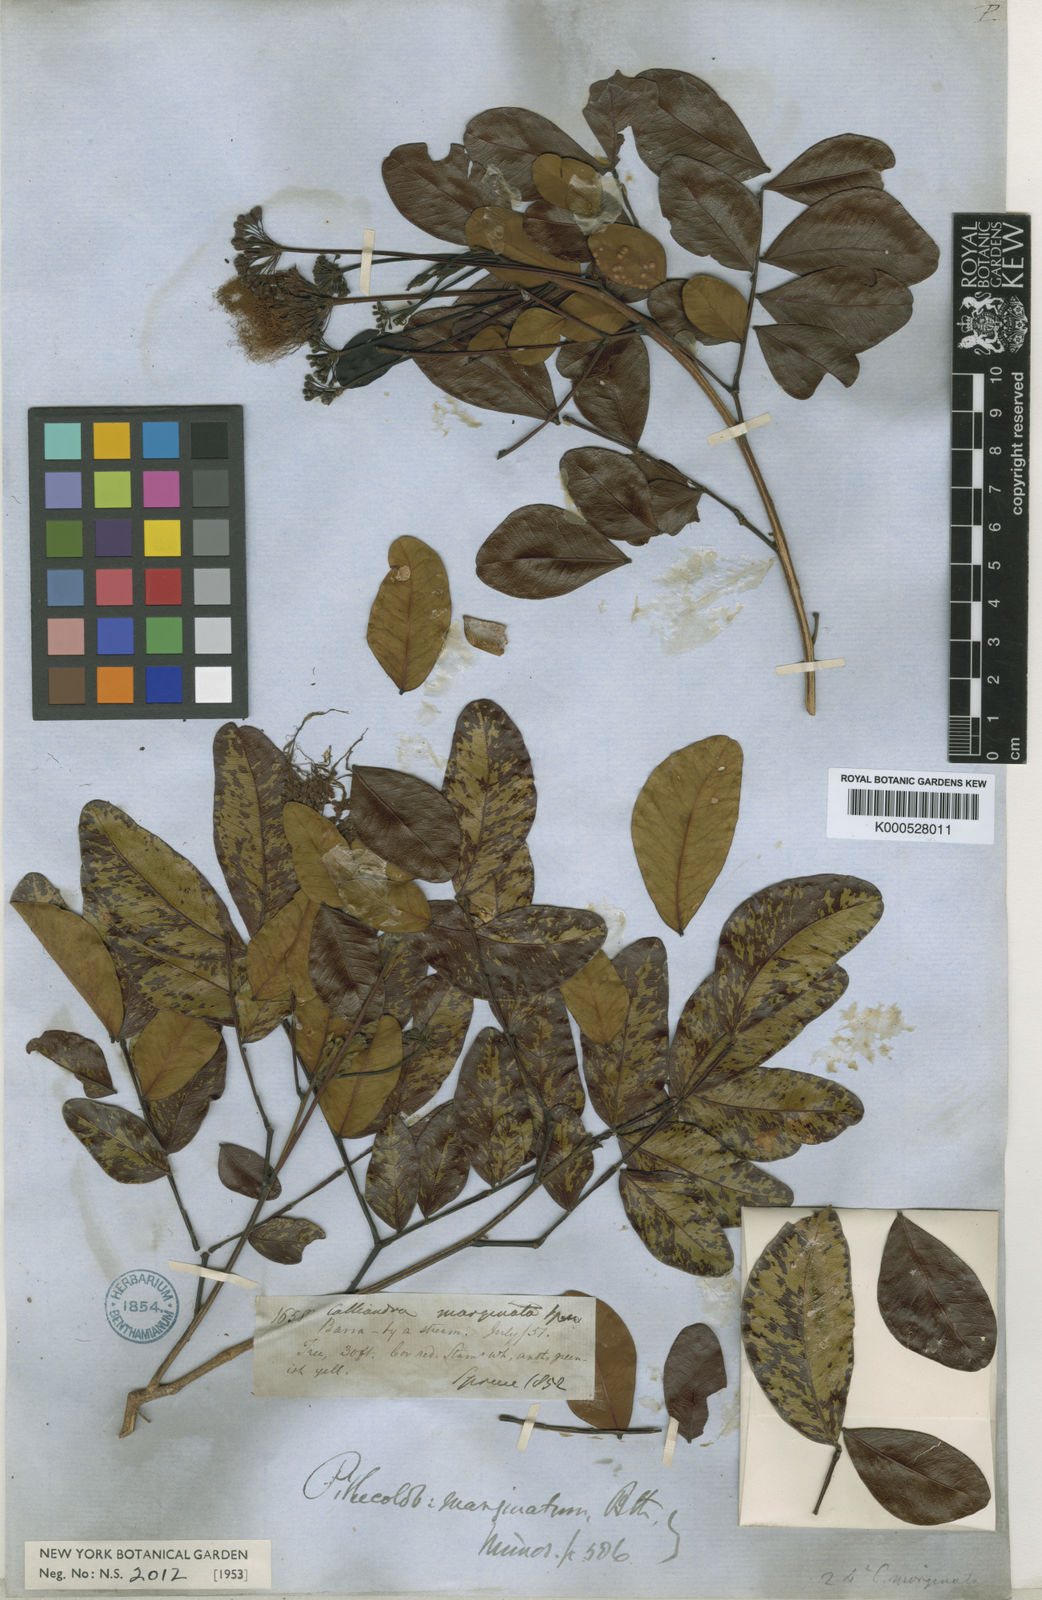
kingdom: Plantae
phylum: Tracheophyta
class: Magnoliopsida
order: Fabales
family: Fabaceae
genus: Hydrochorea
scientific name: Hydrochorea marginata
